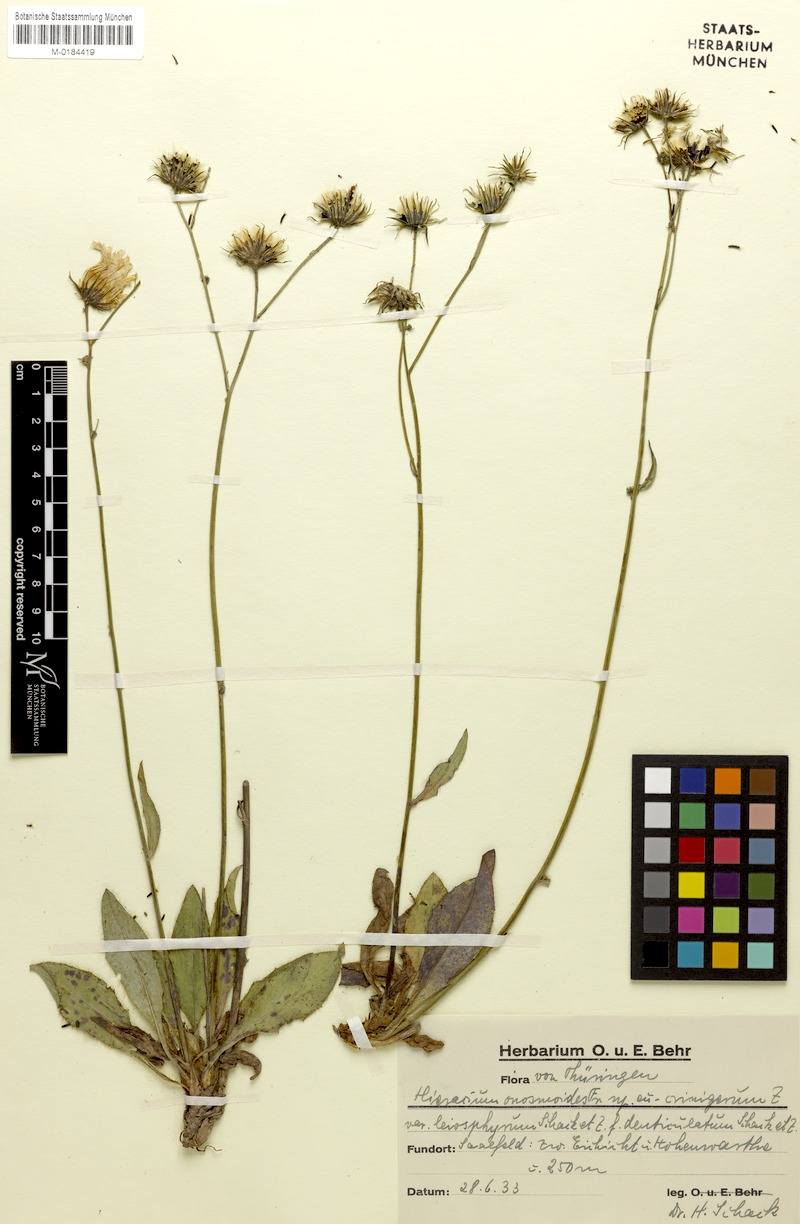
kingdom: Plantae
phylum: Tracheophyta
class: Magnoliopsida
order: Asterales
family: Asteraceae
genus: Hieracium
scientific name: Hieracium onosmoides
